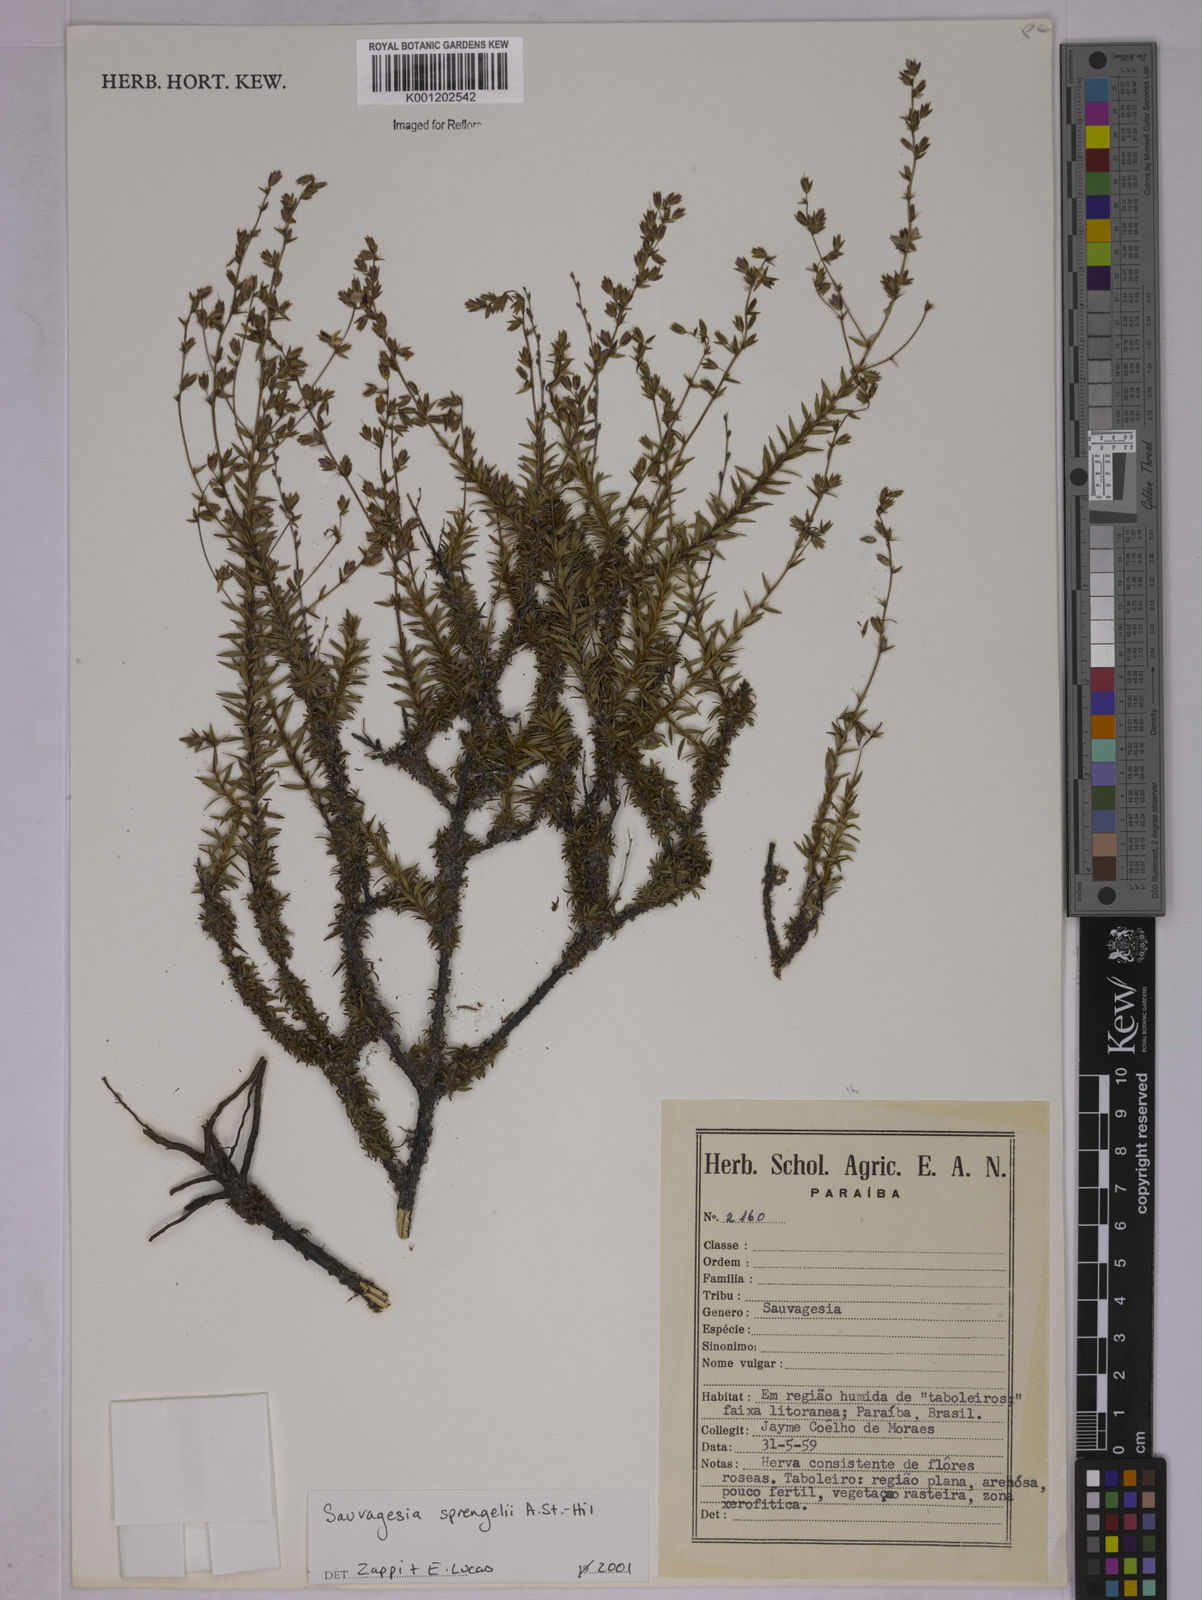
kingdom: Plantae
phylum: Tracheophyta
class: Magnoliopsida
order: Malpighiales
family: Ochnaceae
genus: Sauvagesia
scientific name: Sauvagesia sprengelii
